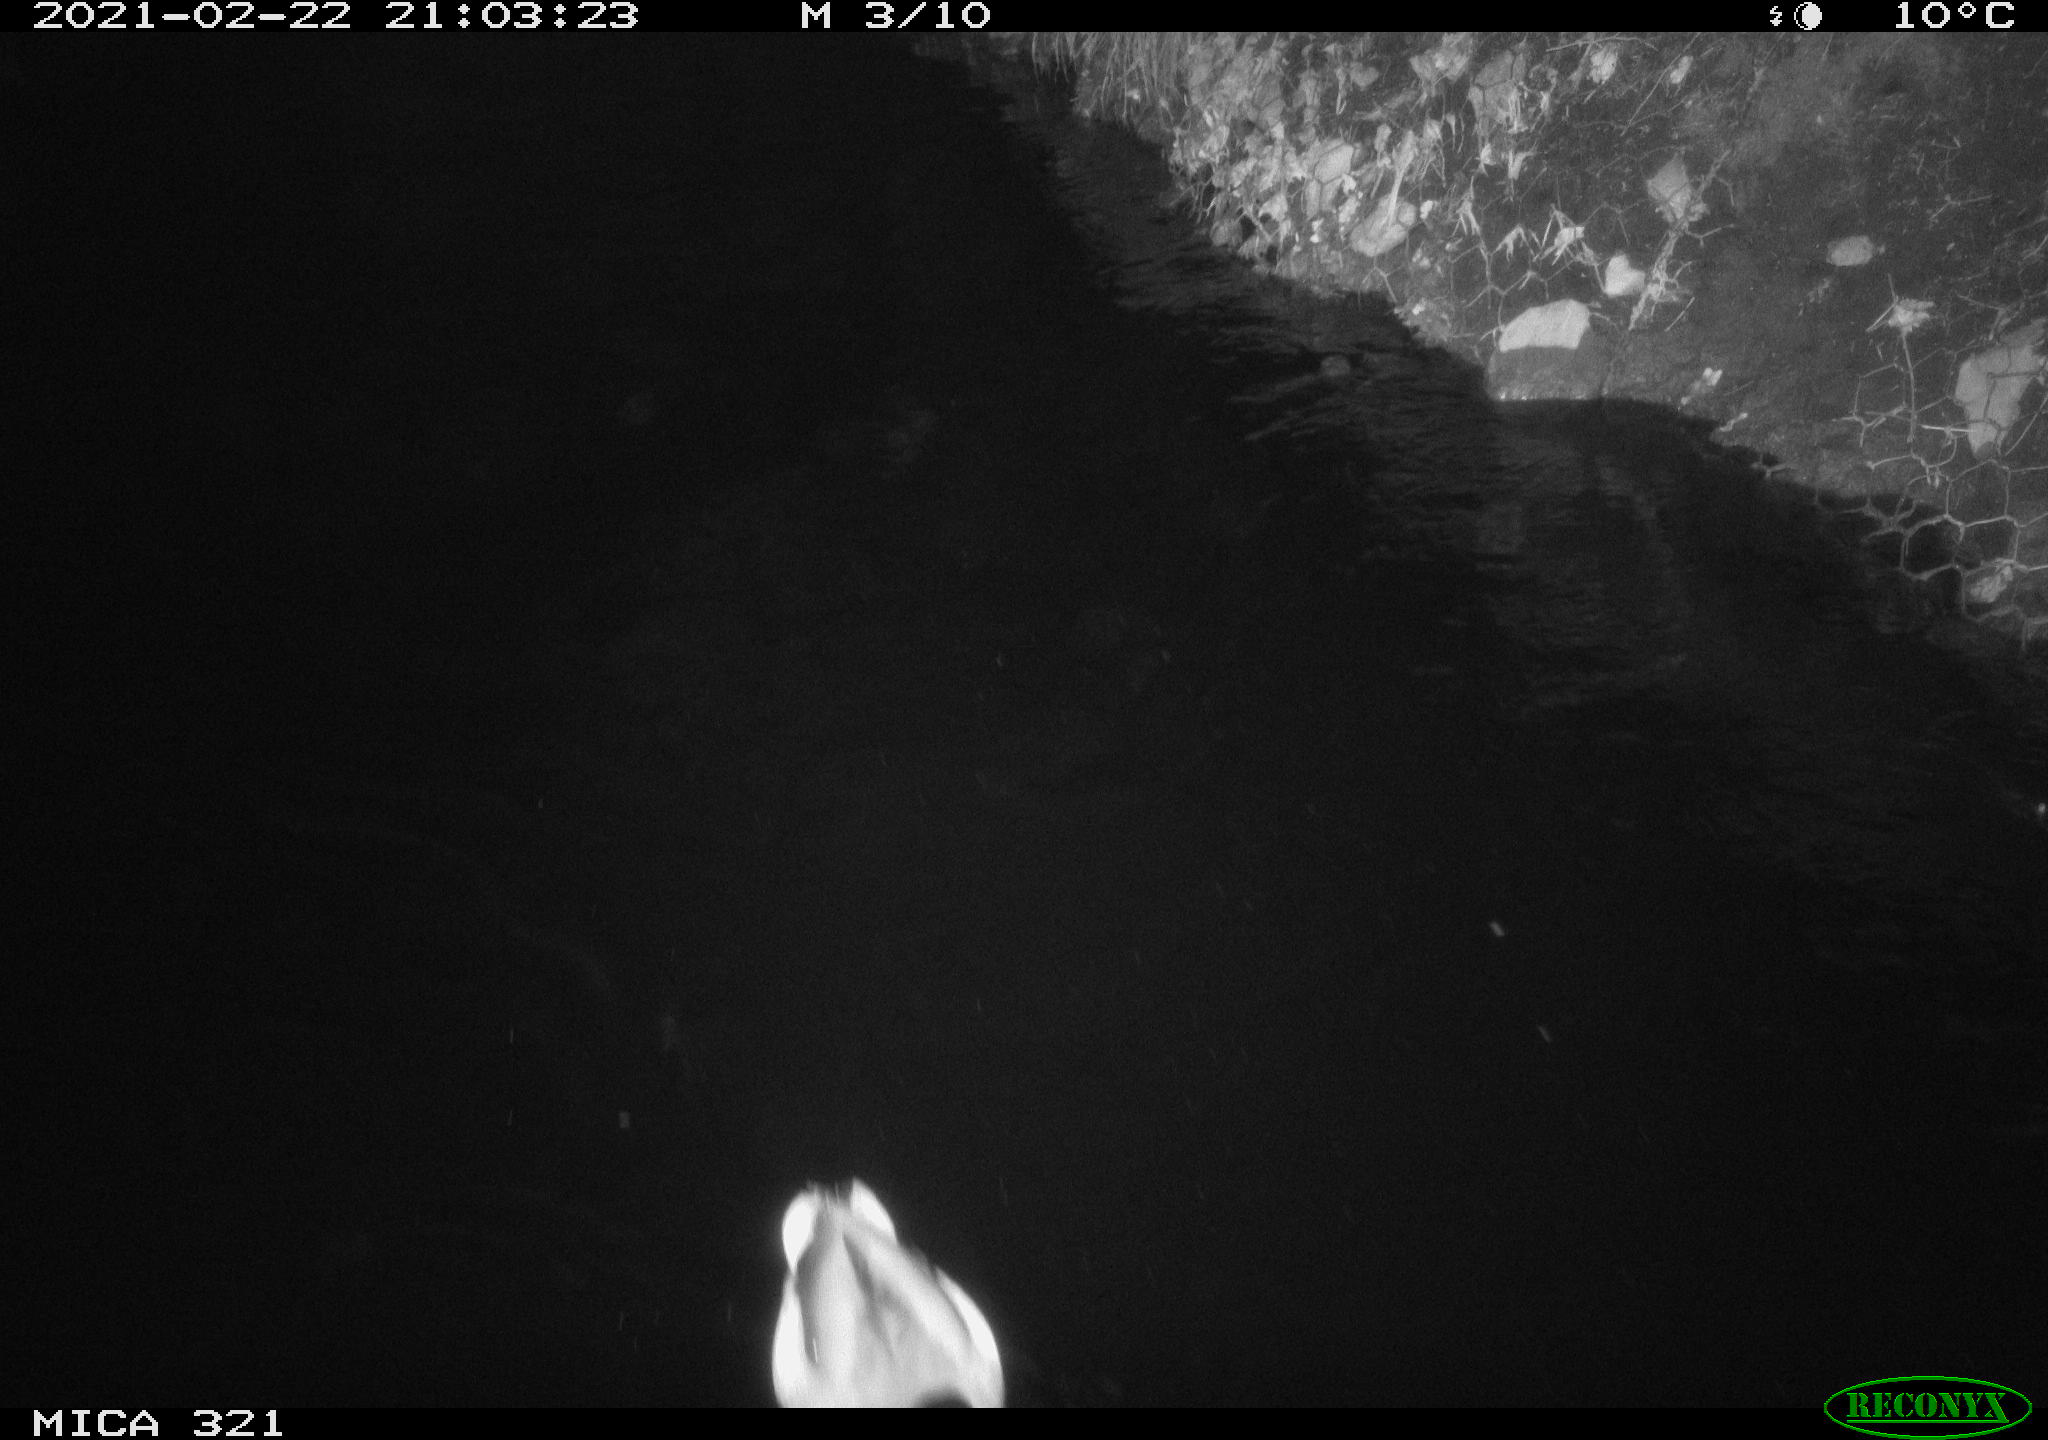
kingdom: Animalia
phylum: Chordata
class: Aves
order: Anseriformes
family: Anatidae
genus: Anas
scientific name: Anas platyrhynchos
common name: Mallard
